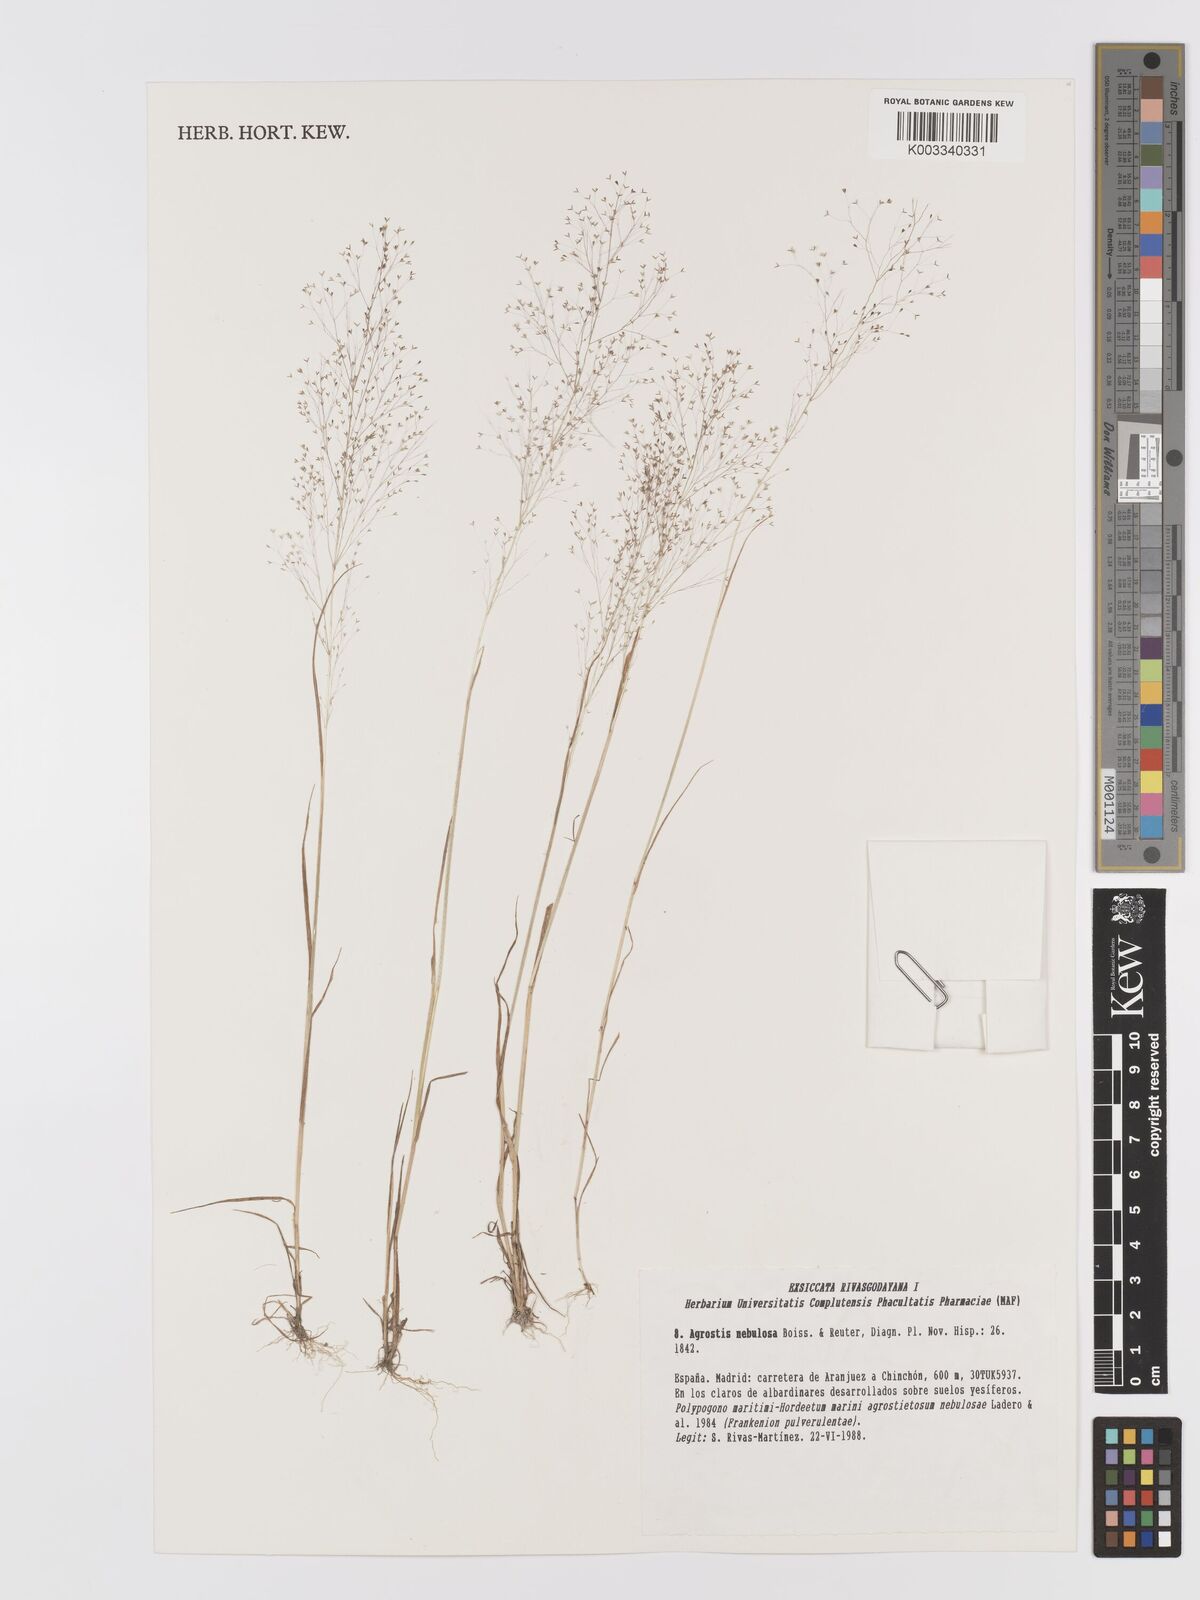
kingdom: Plantae
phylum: Tracheophyta
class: Liliopsida
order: Poales
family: Poaceae
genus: Agrostis
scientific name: Agrostis nebulosa
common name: Cloud grass
